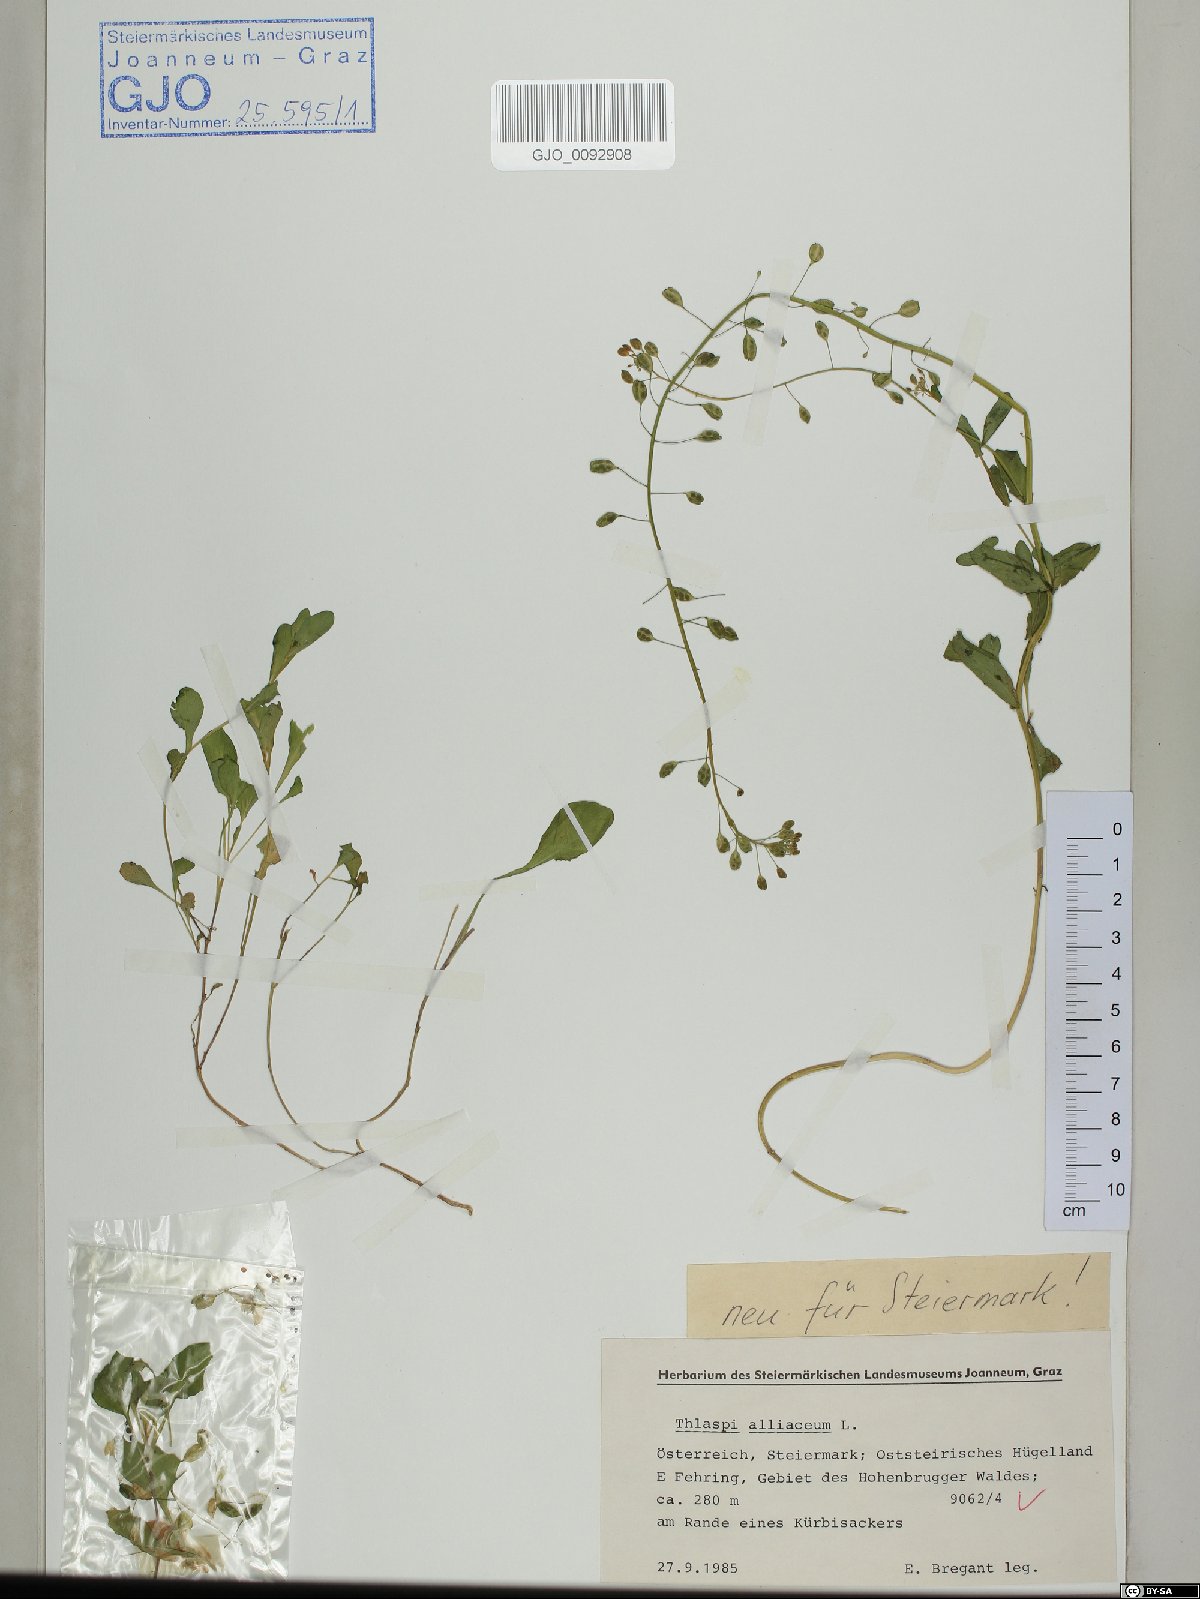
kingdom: Plantae
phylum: Tracheophyta
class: Magnoliopsida
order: Brassicales
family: Brassicaceae
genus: Mummenhoffia
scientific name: Mummenhoffia alliacea
